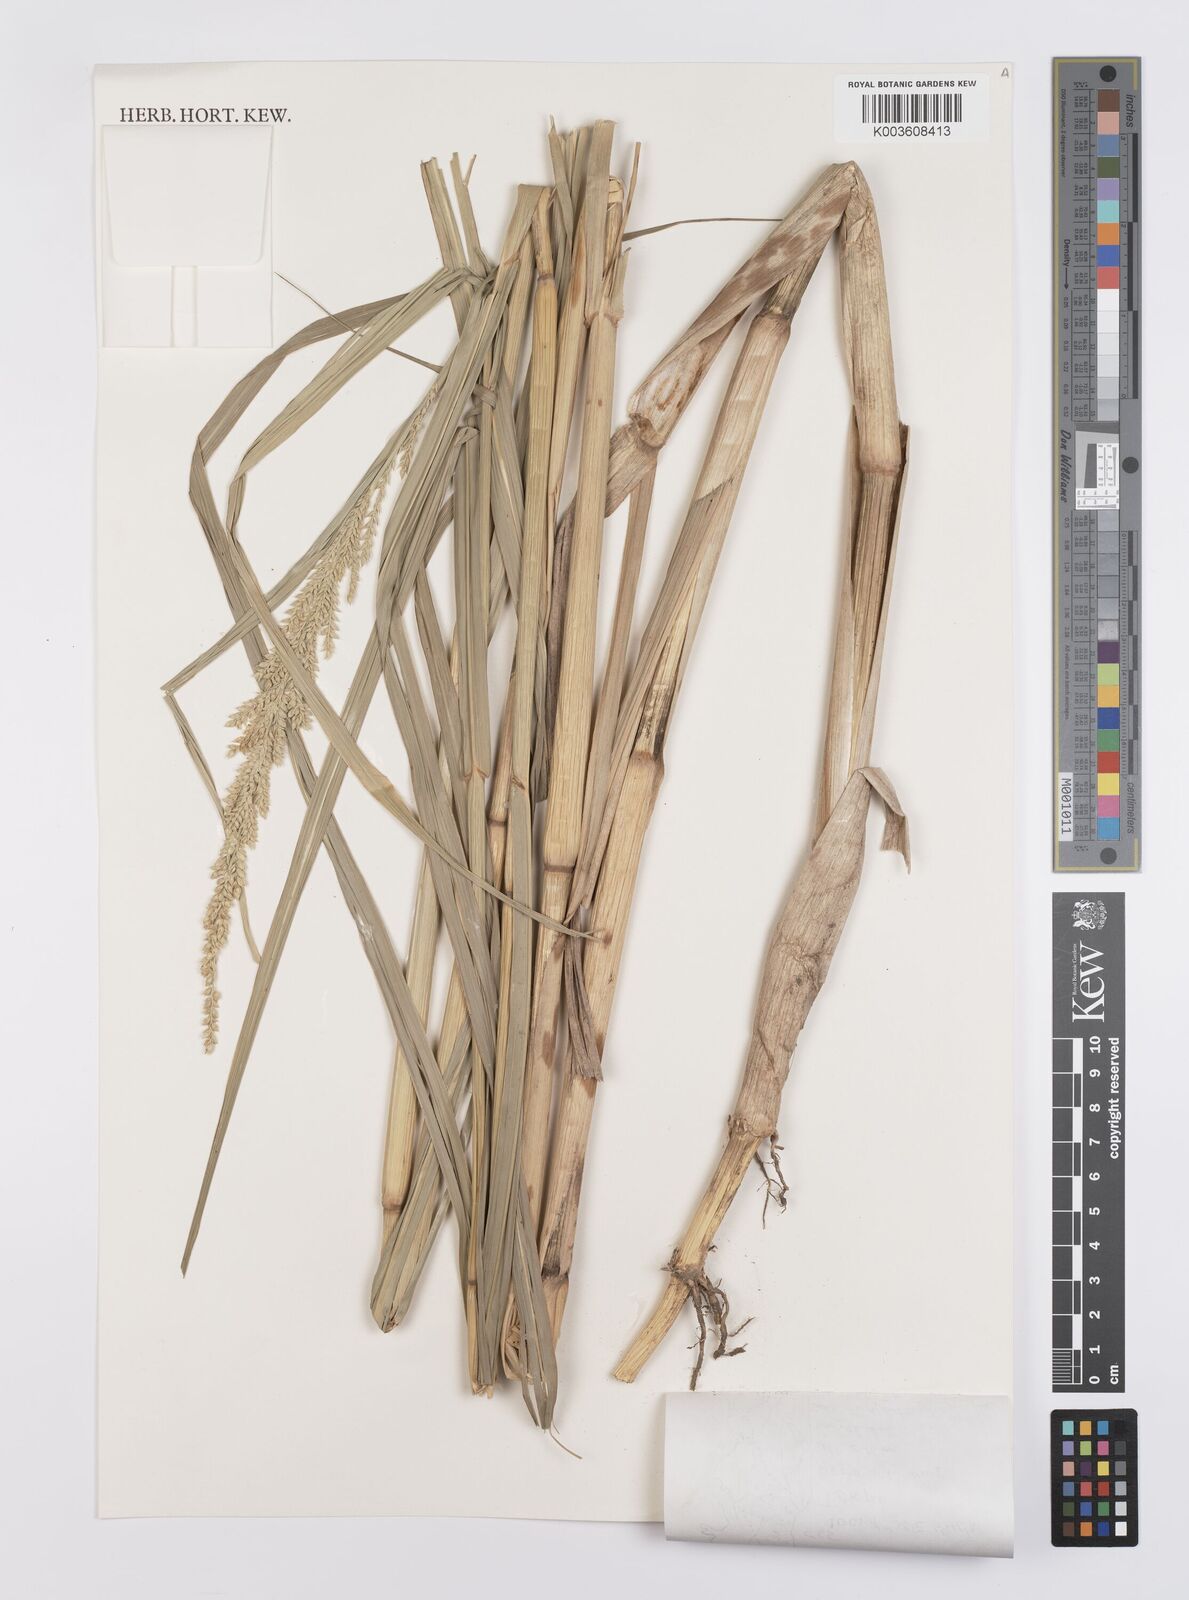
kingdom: Plantae
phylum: Tracheophyta
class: Liliopsida
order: Poales
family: Poaceae
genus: Echinochloa
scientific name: Echinochloa pyramidalis
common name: Antelope grass
